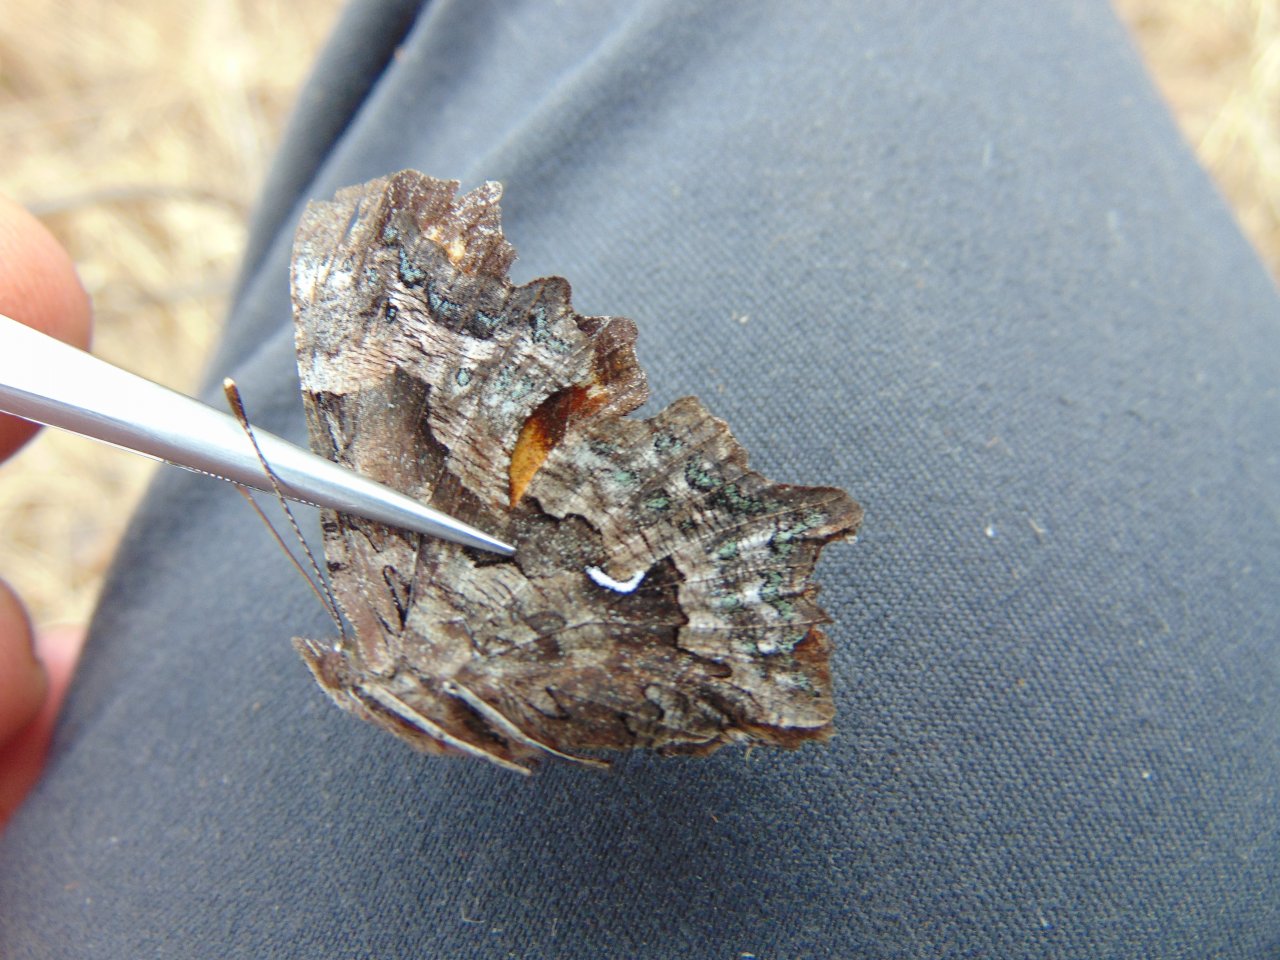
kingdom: Animalia
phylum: Arthropoda
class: Insecta
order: Lepidoptera
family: Nymphalidae
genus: Polygonia
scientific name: Polygonia faunus
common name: Green Comma
